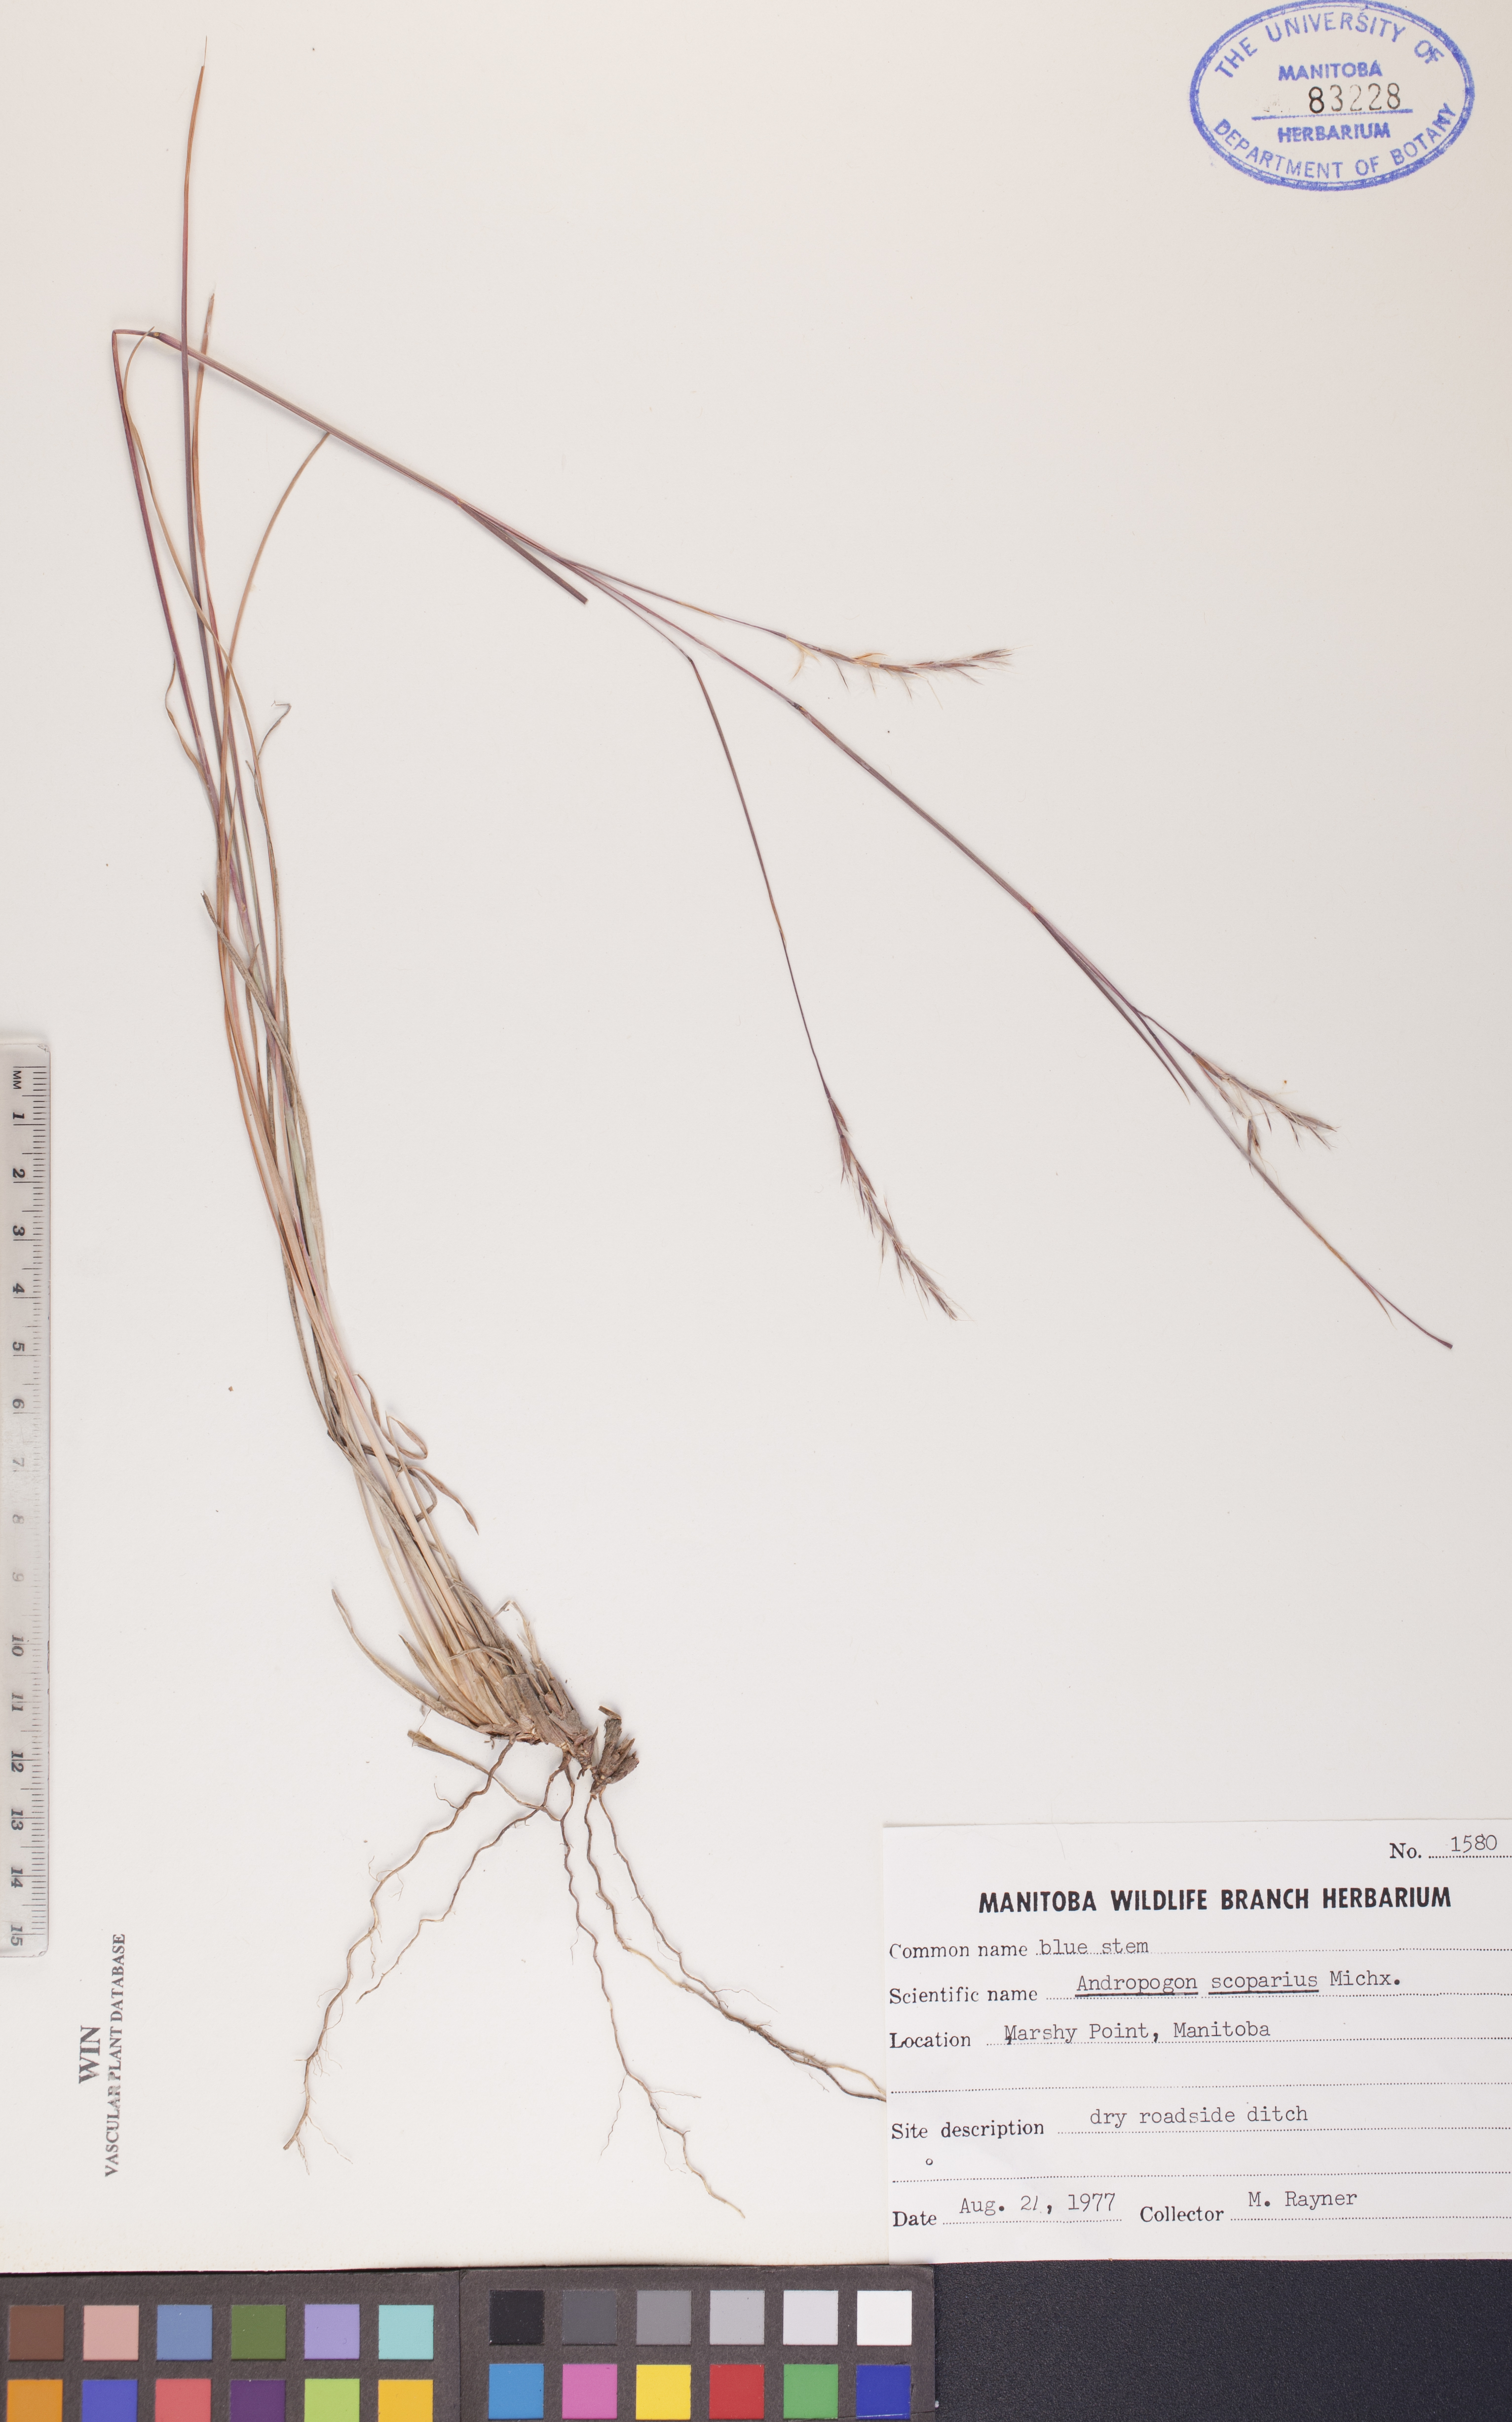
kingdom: Plantae
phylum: Tracheophyta
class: Liliopsida
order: Poales
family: Poaceae
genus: Schizachyrium
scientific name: Schizachyrium scoparium
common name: Little bluestem
